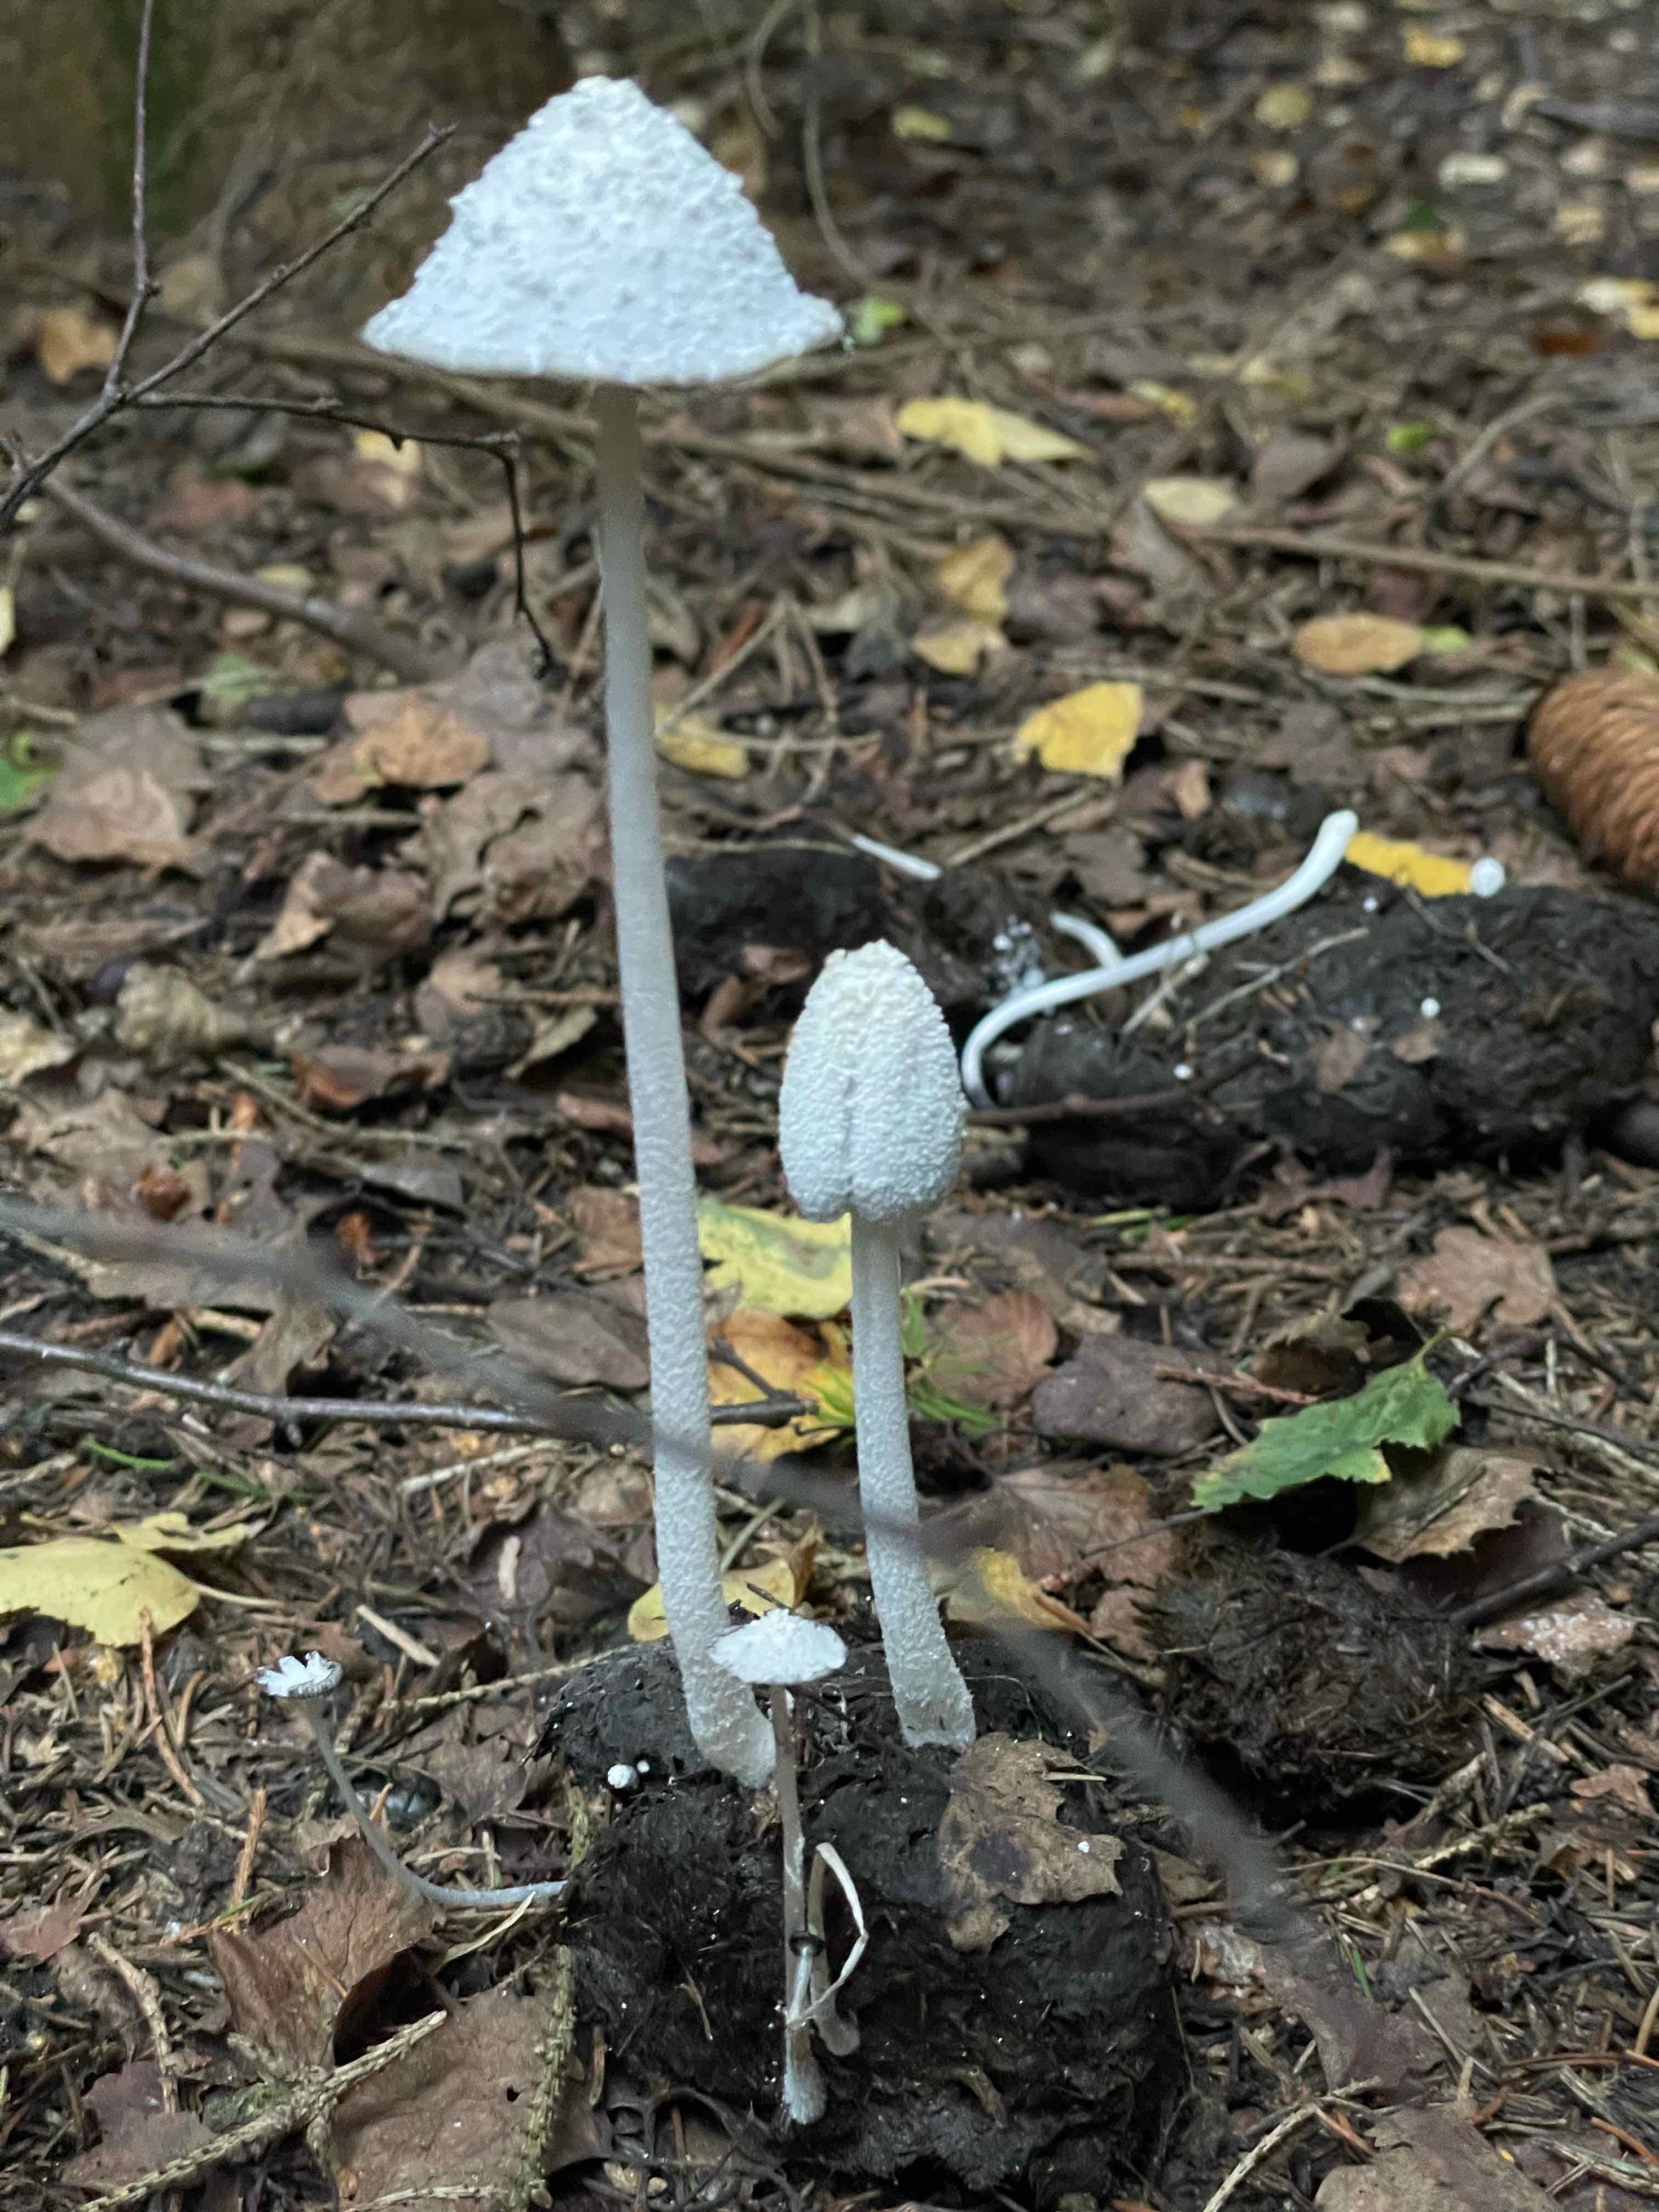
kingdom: Fungi
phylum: Basidiomycota
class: Agaricomycetes
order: Agaricales
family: Psathyrellaceae
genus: Coprinopsis
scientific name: Coprinopsis nivea
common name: snehvid blækhat
